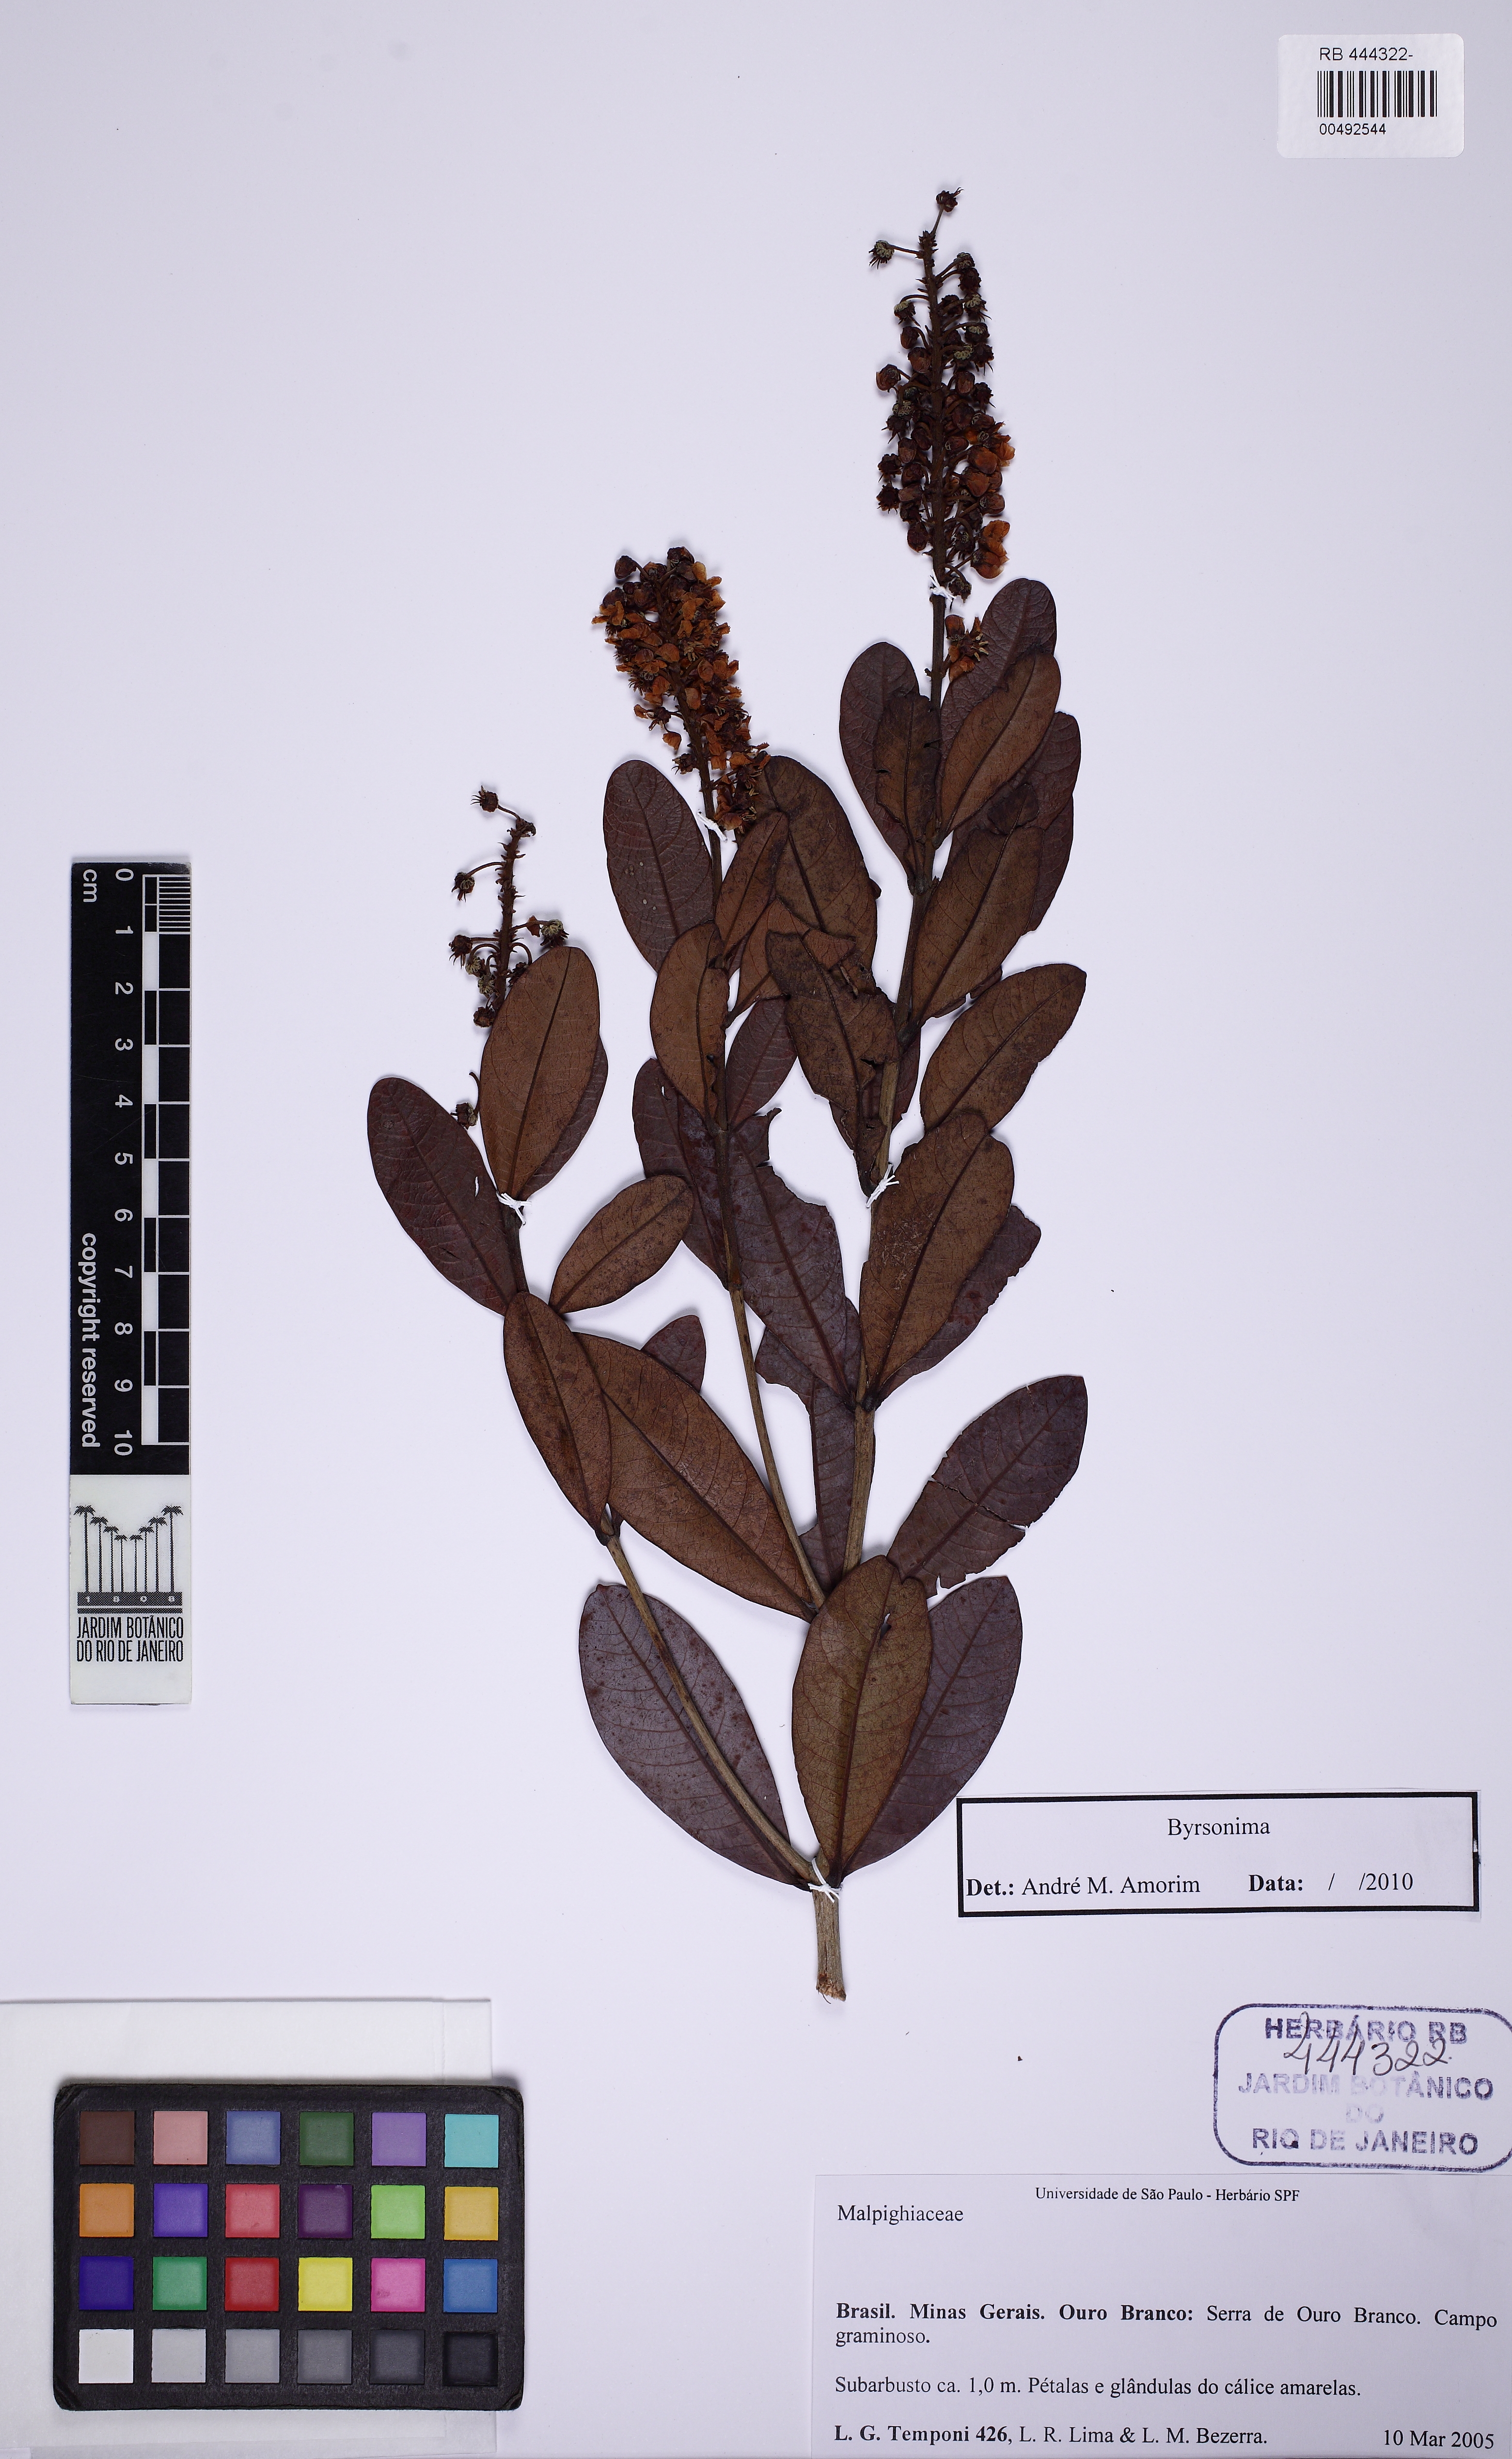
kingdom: Plantae
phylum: Tracheophyta
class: Magnoliopsida
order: Malpighiales
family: Malpighiaceae
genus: Byrsonima
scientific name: Byrsonima intermedia
